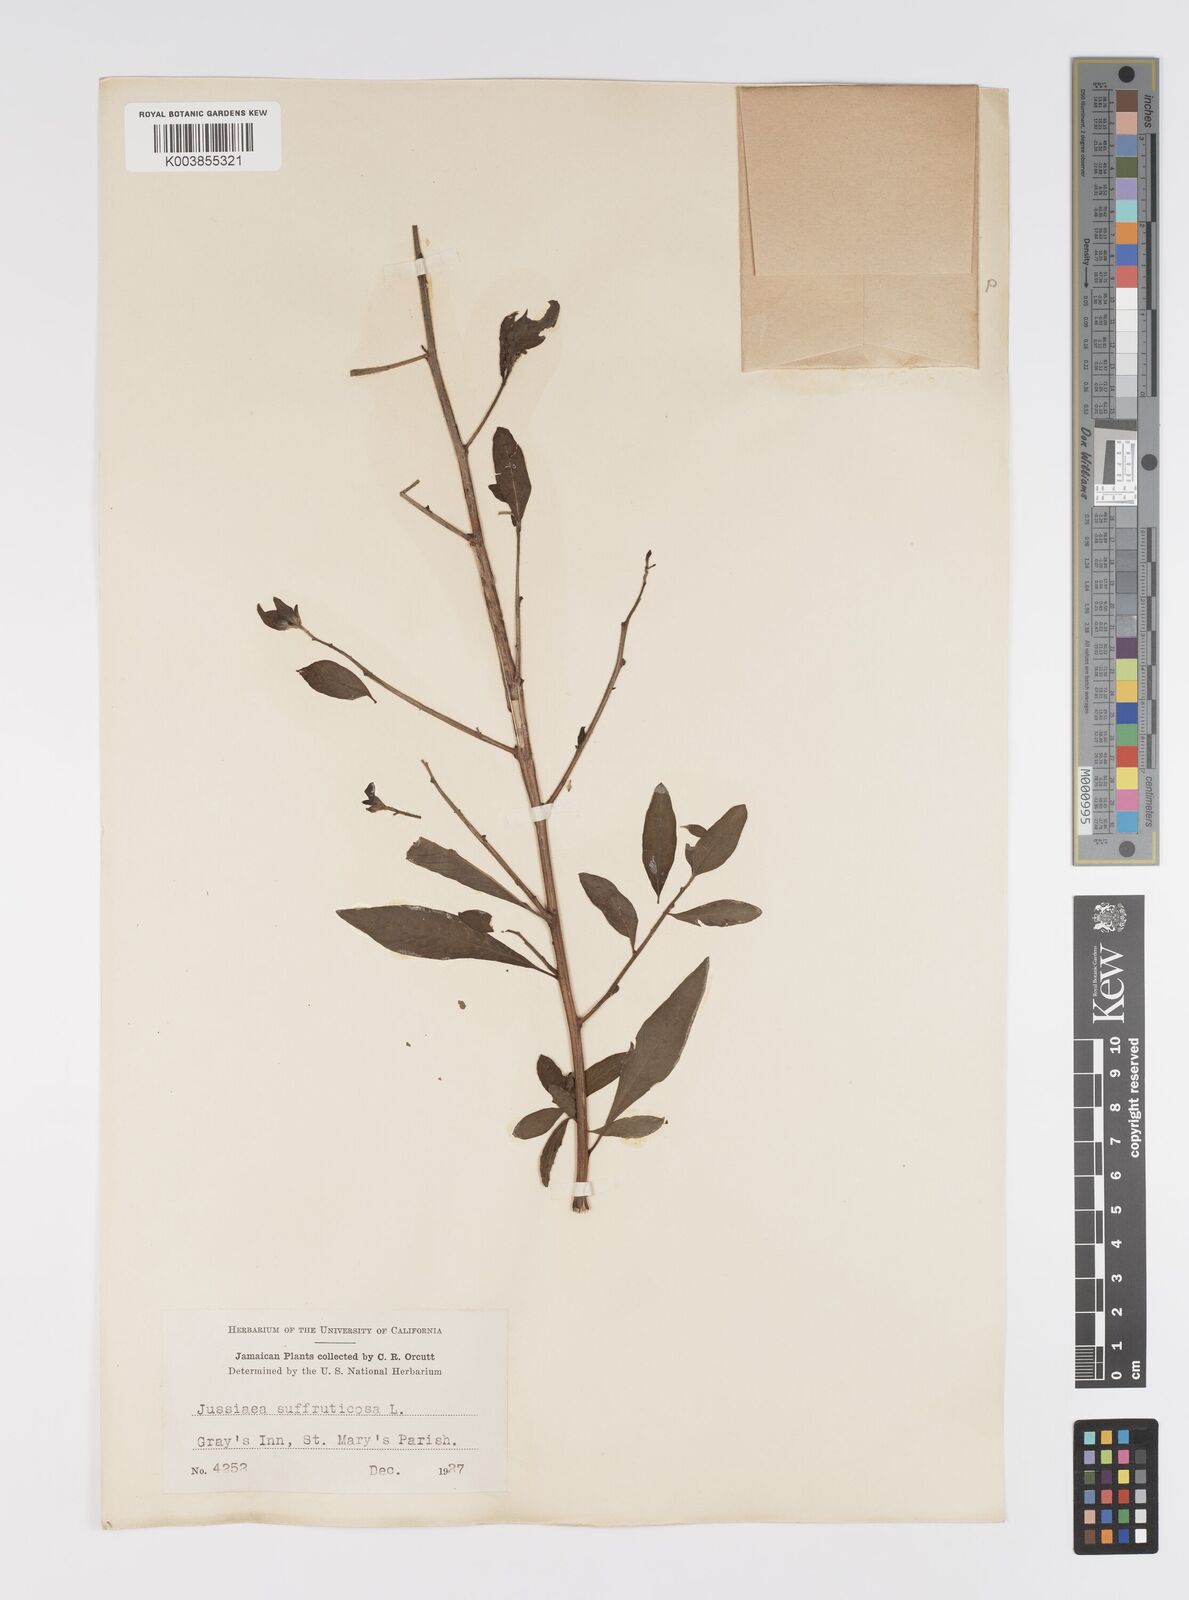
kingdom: Plantae
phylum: Tracheophyta
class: Magnoliopsida
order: Myrtales
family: Onagraceae
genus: Ludwigia
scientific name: Ludwigia octovalvis
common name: Water-primrose
